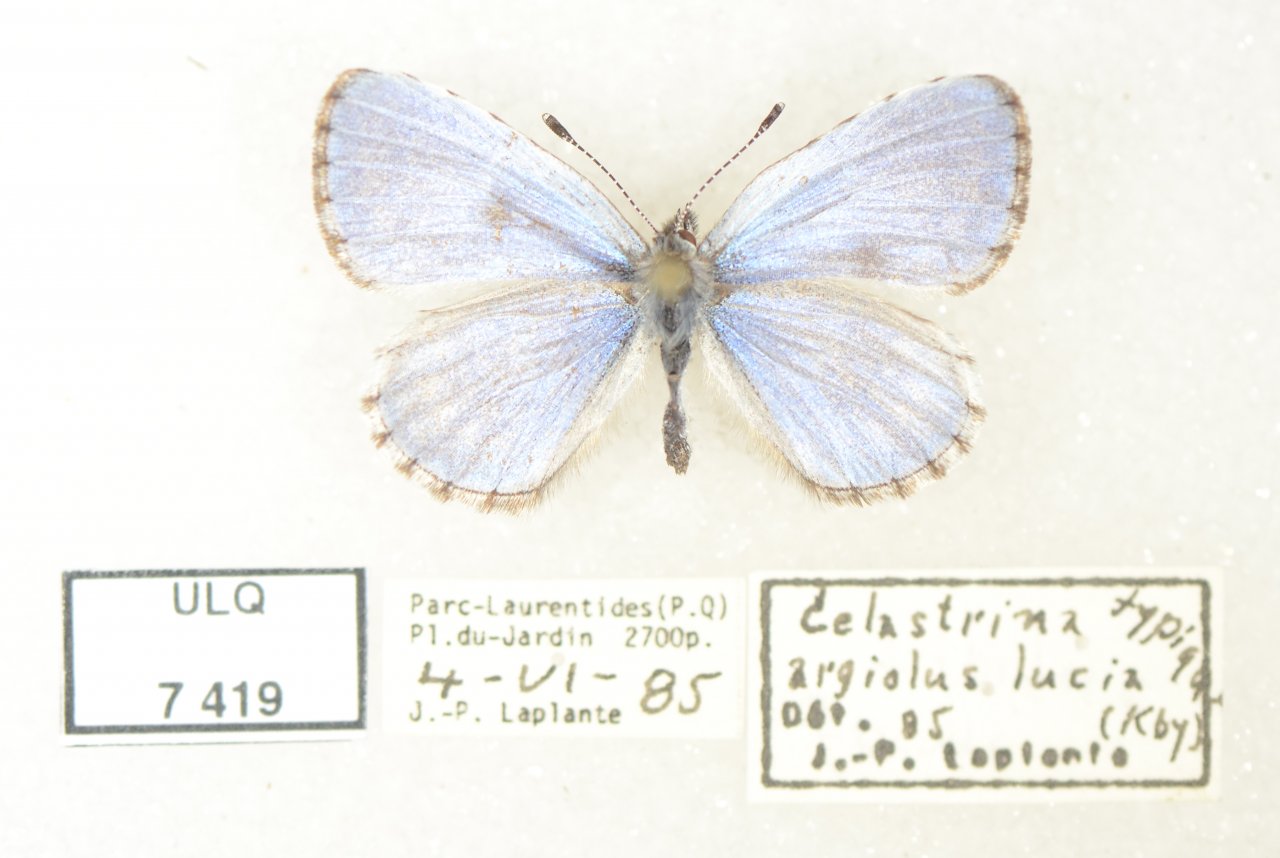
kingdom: Animalia
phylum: Arthropoda
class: Insecta
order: Lepidoptera
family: Lycaenidae
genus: Celastrina
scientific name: Celastrina lucia
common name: Northern Spring Azure
